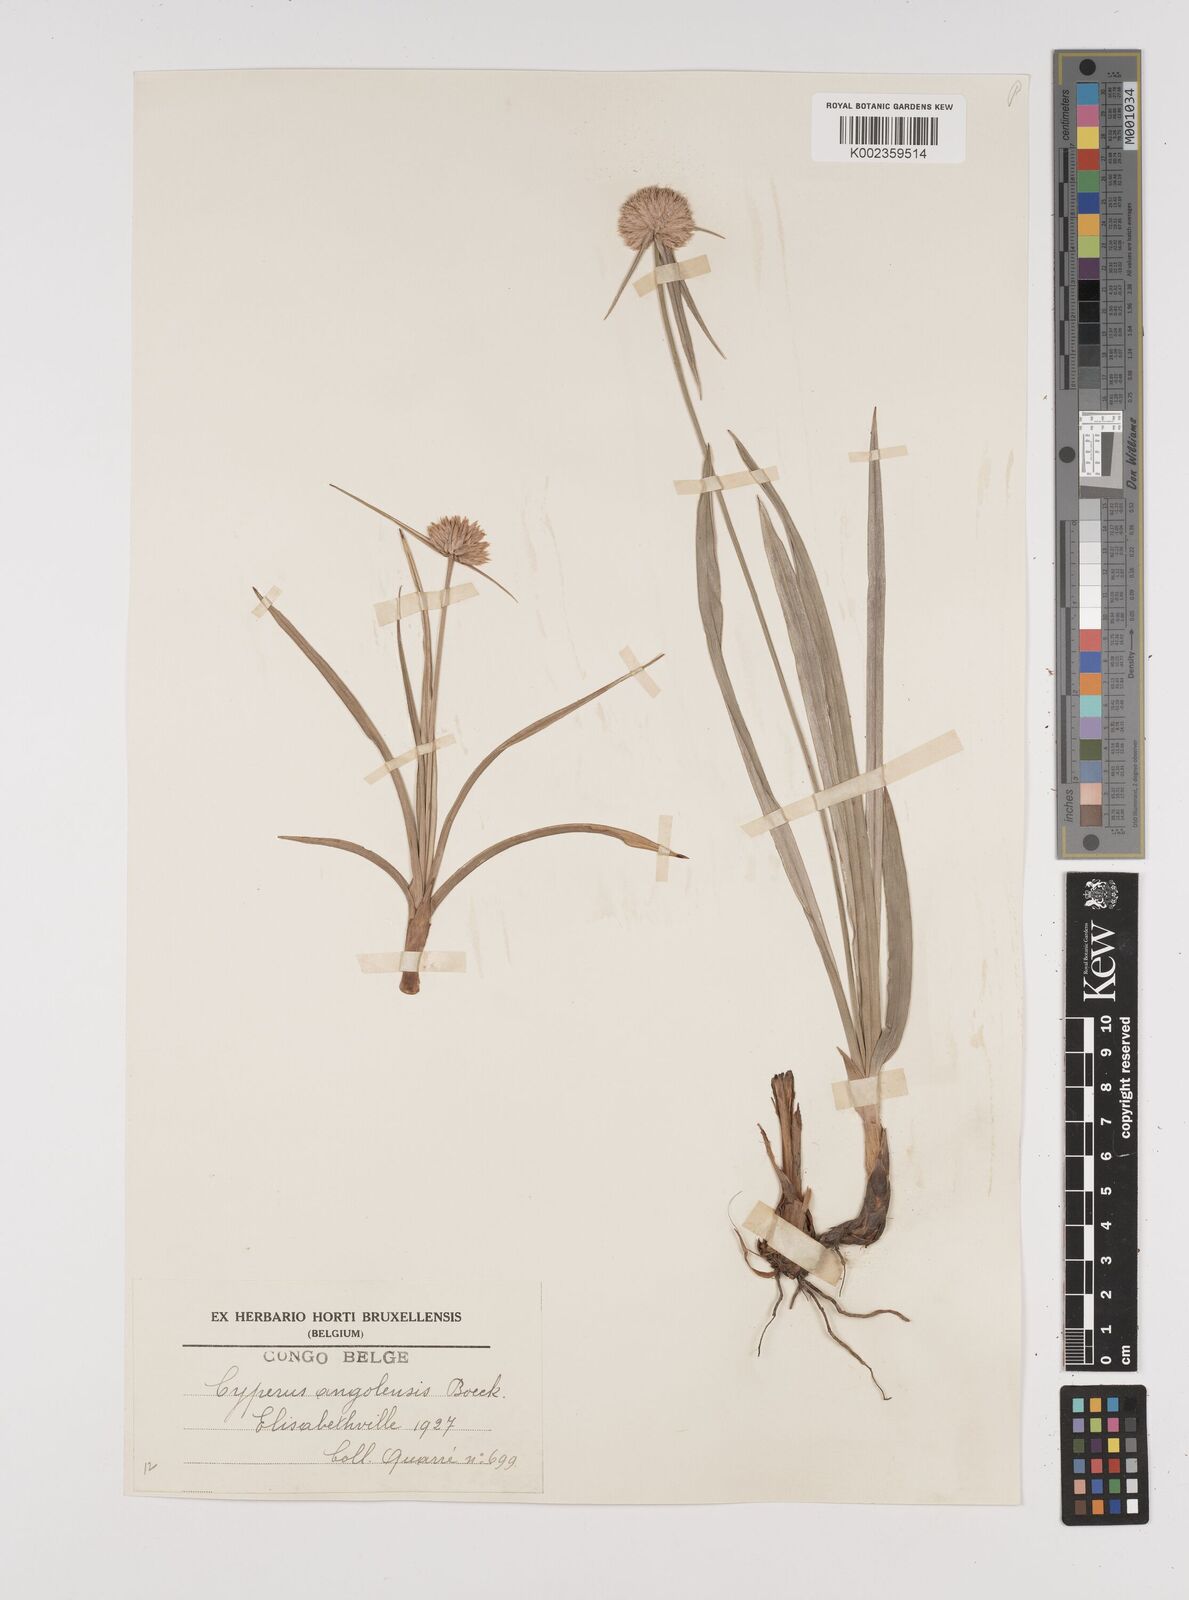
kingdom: Plantae
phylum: Tracheophyta
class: Liliopsida
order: Poales
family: Cyperaceae
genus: Cyperus
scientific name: Cyperus angolensis
